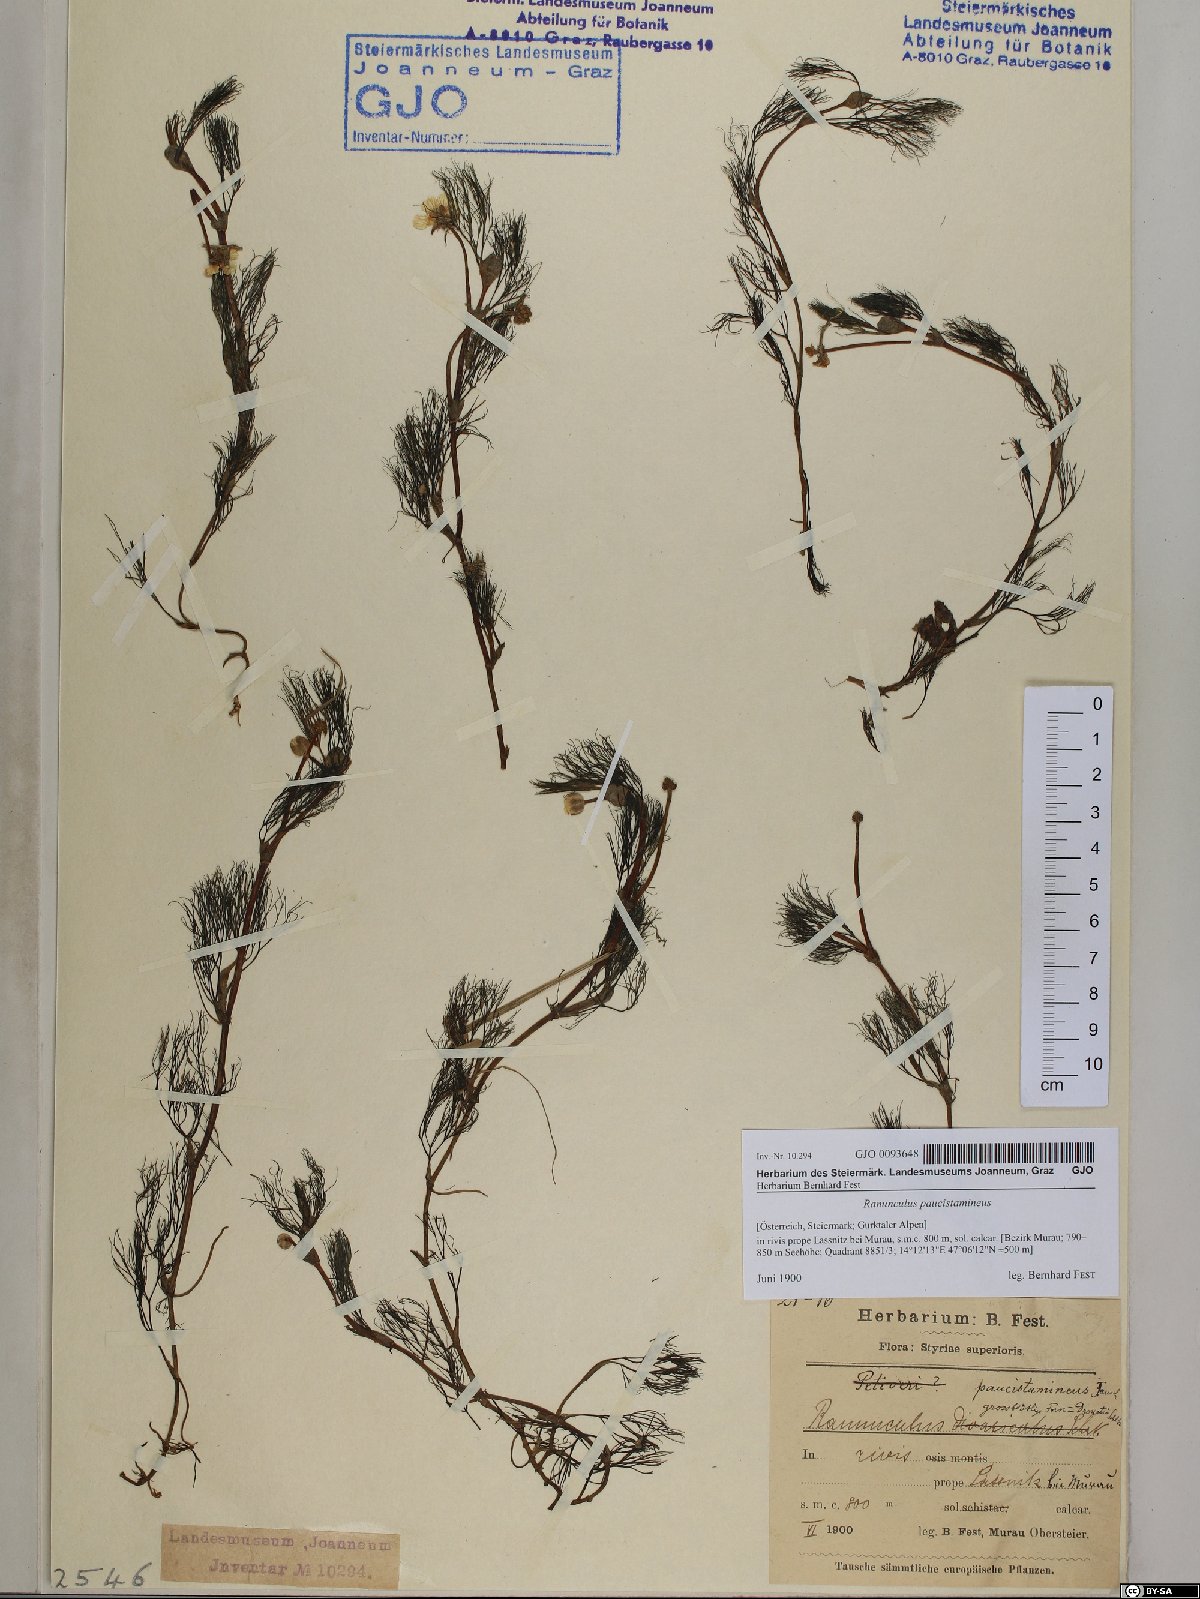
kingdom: Plantae
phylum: Tracheophyta
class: Magnoliopsida
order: Ranunculales
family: Ranunculaceae
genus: Ranunculus
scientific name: Ranunculus
